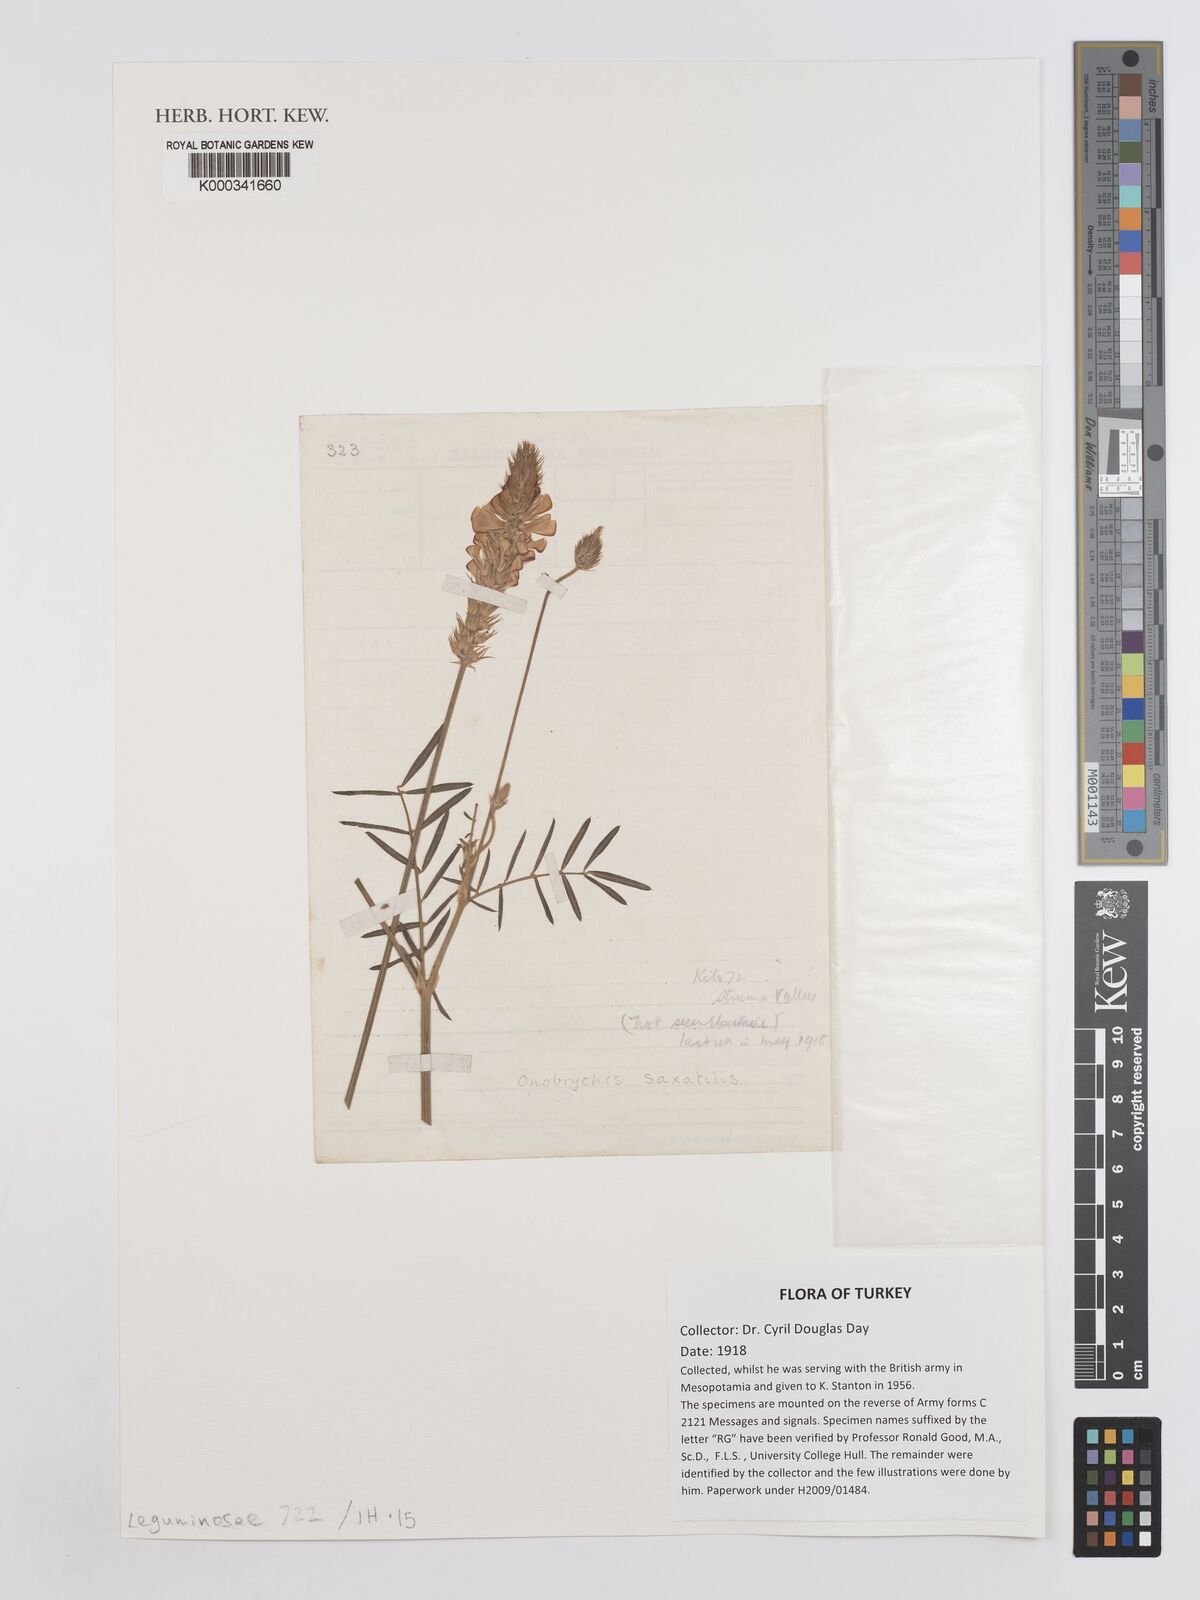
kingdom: Plantae
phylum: Tracheophyta
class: Magnoliopsida
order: Fabales
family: Fabaceae
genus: Onobrychis
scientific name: Onobrychis saxatilis
